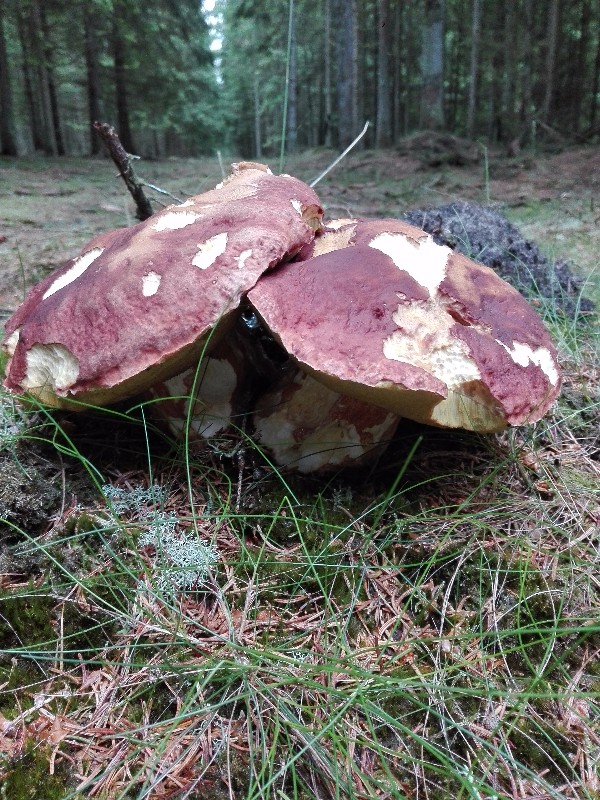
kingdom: Fungi
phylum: Basidiomycota
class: Agaricomycetes
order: Boletales
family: Boletaceae
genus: Boletus
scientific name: Boletus pinophilus
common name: rødbrun rørhat
